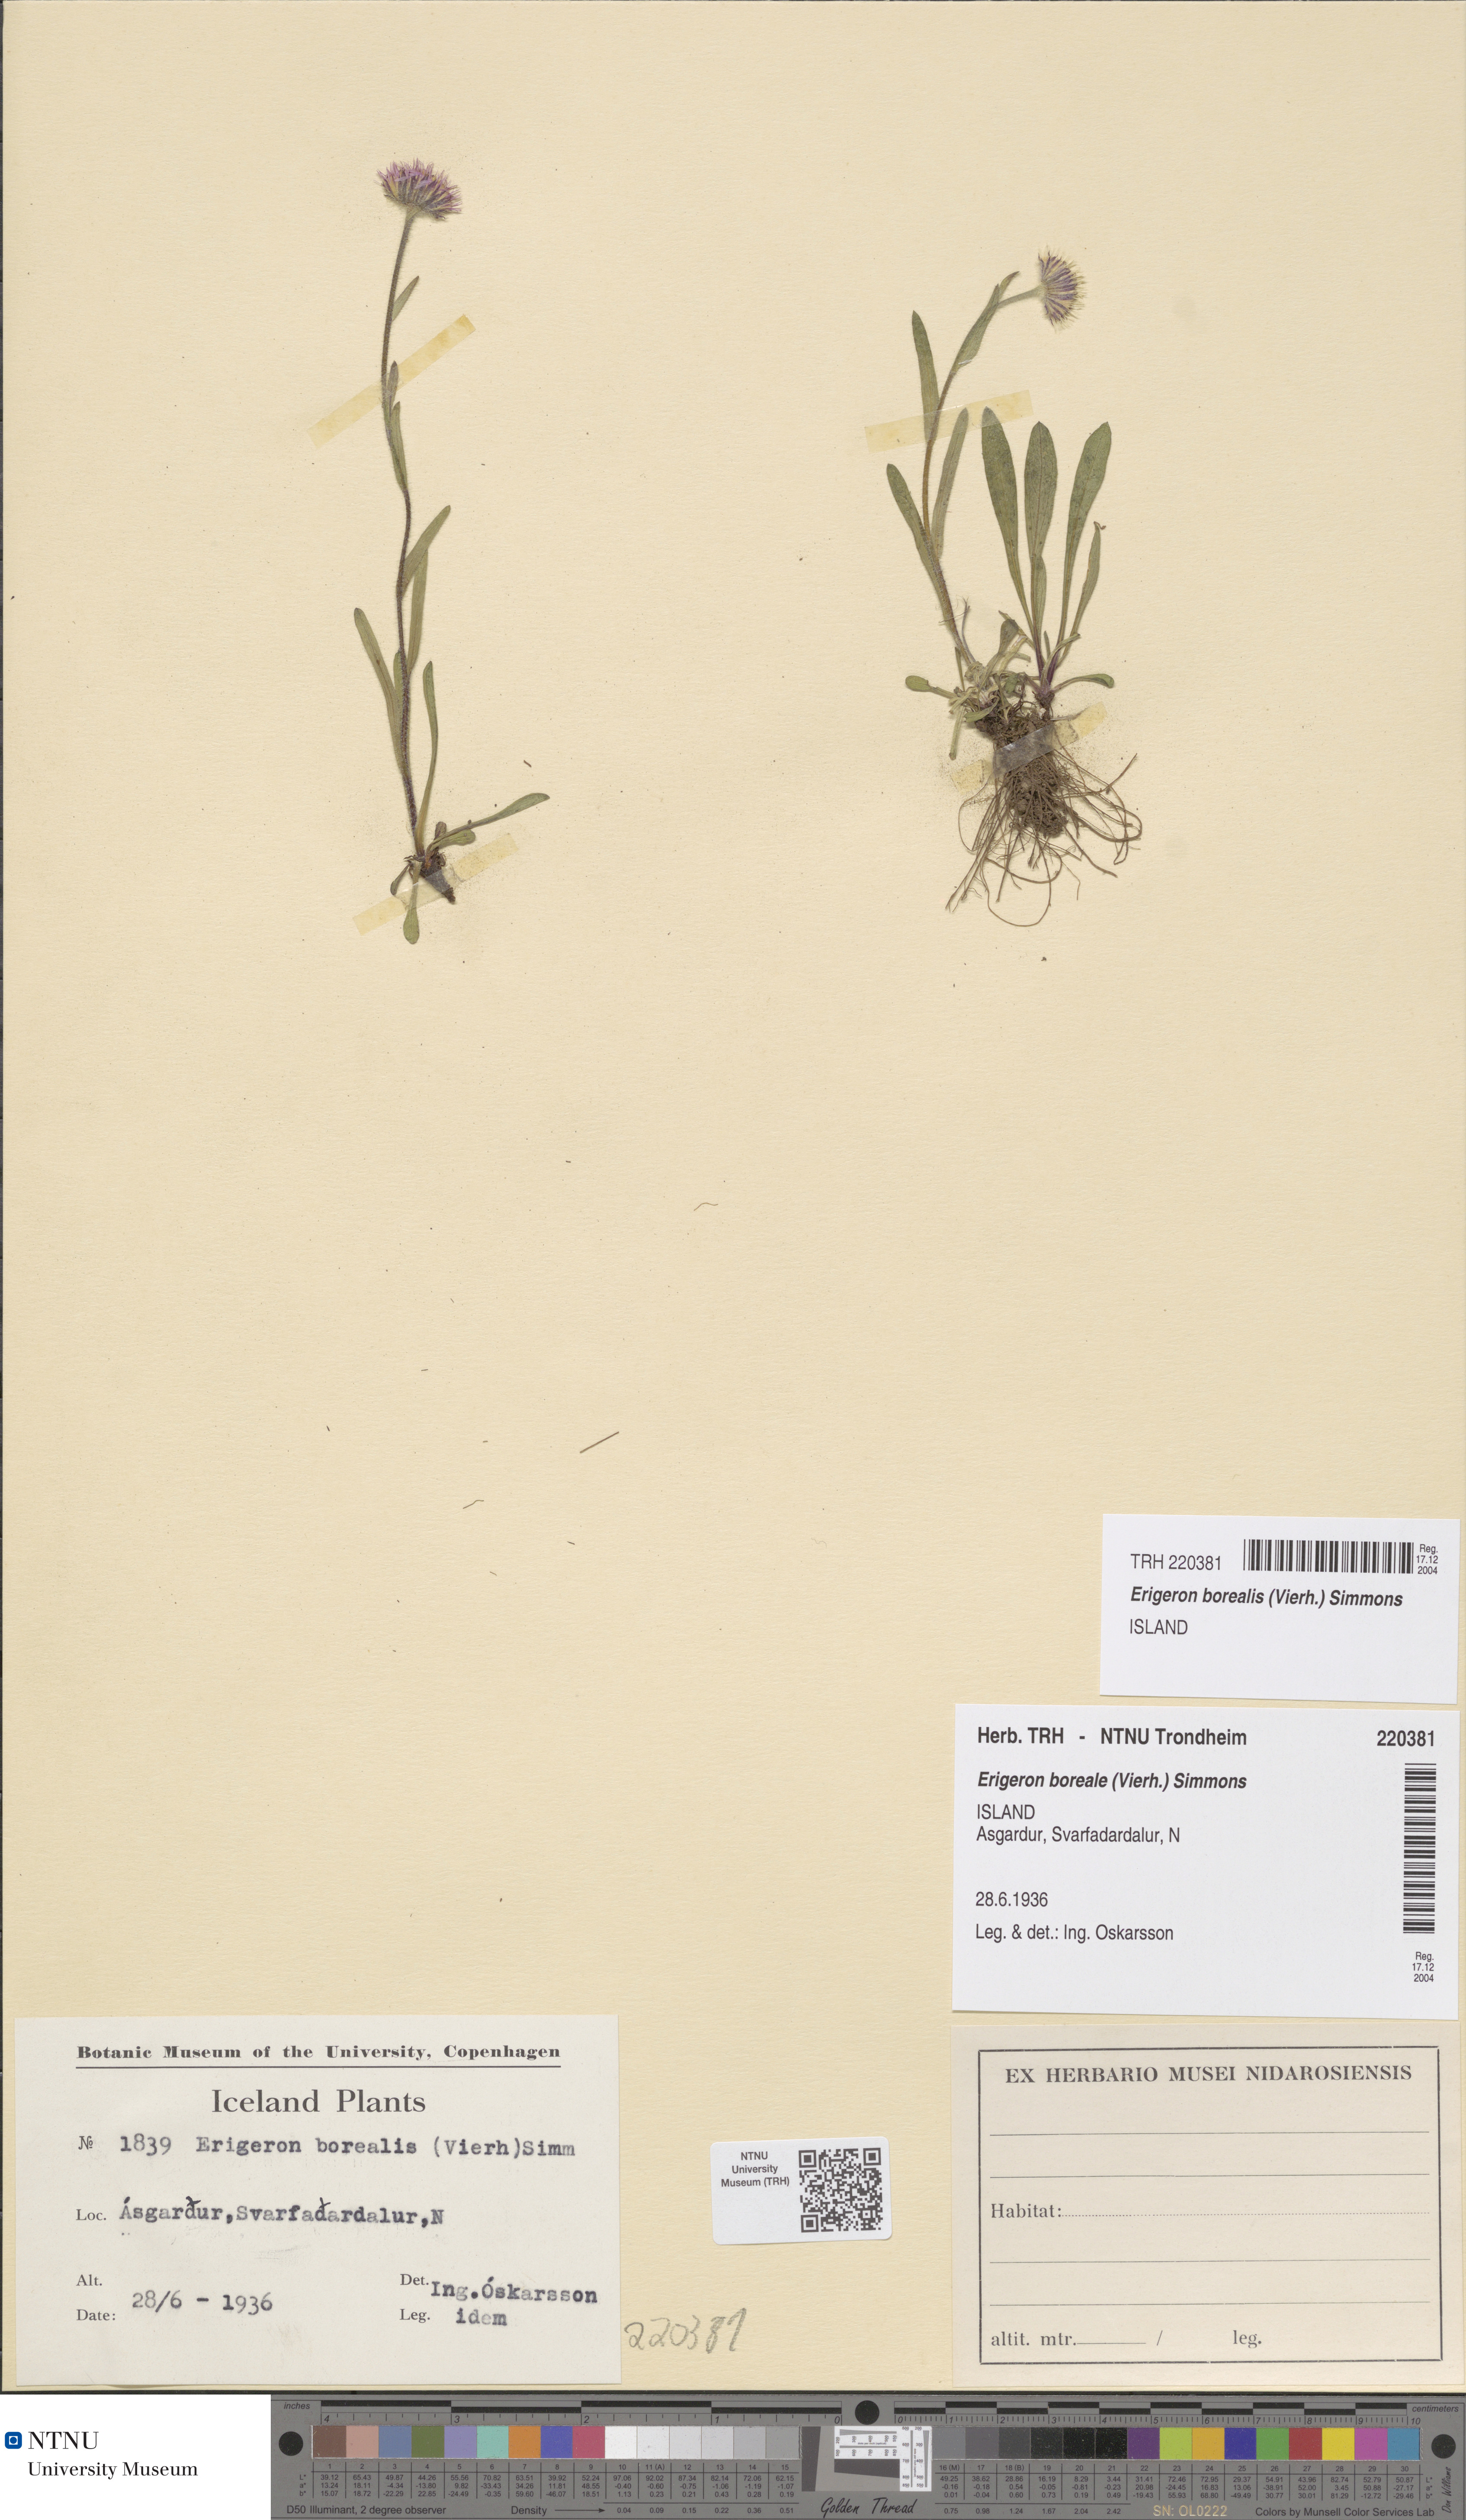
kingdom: Plantae
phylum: Tracheophyta
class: Magnoliopsida
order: Asterales
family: Asteraceae
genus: Erigeron
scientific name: Erigeron borealis
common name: Alpine fleabane
